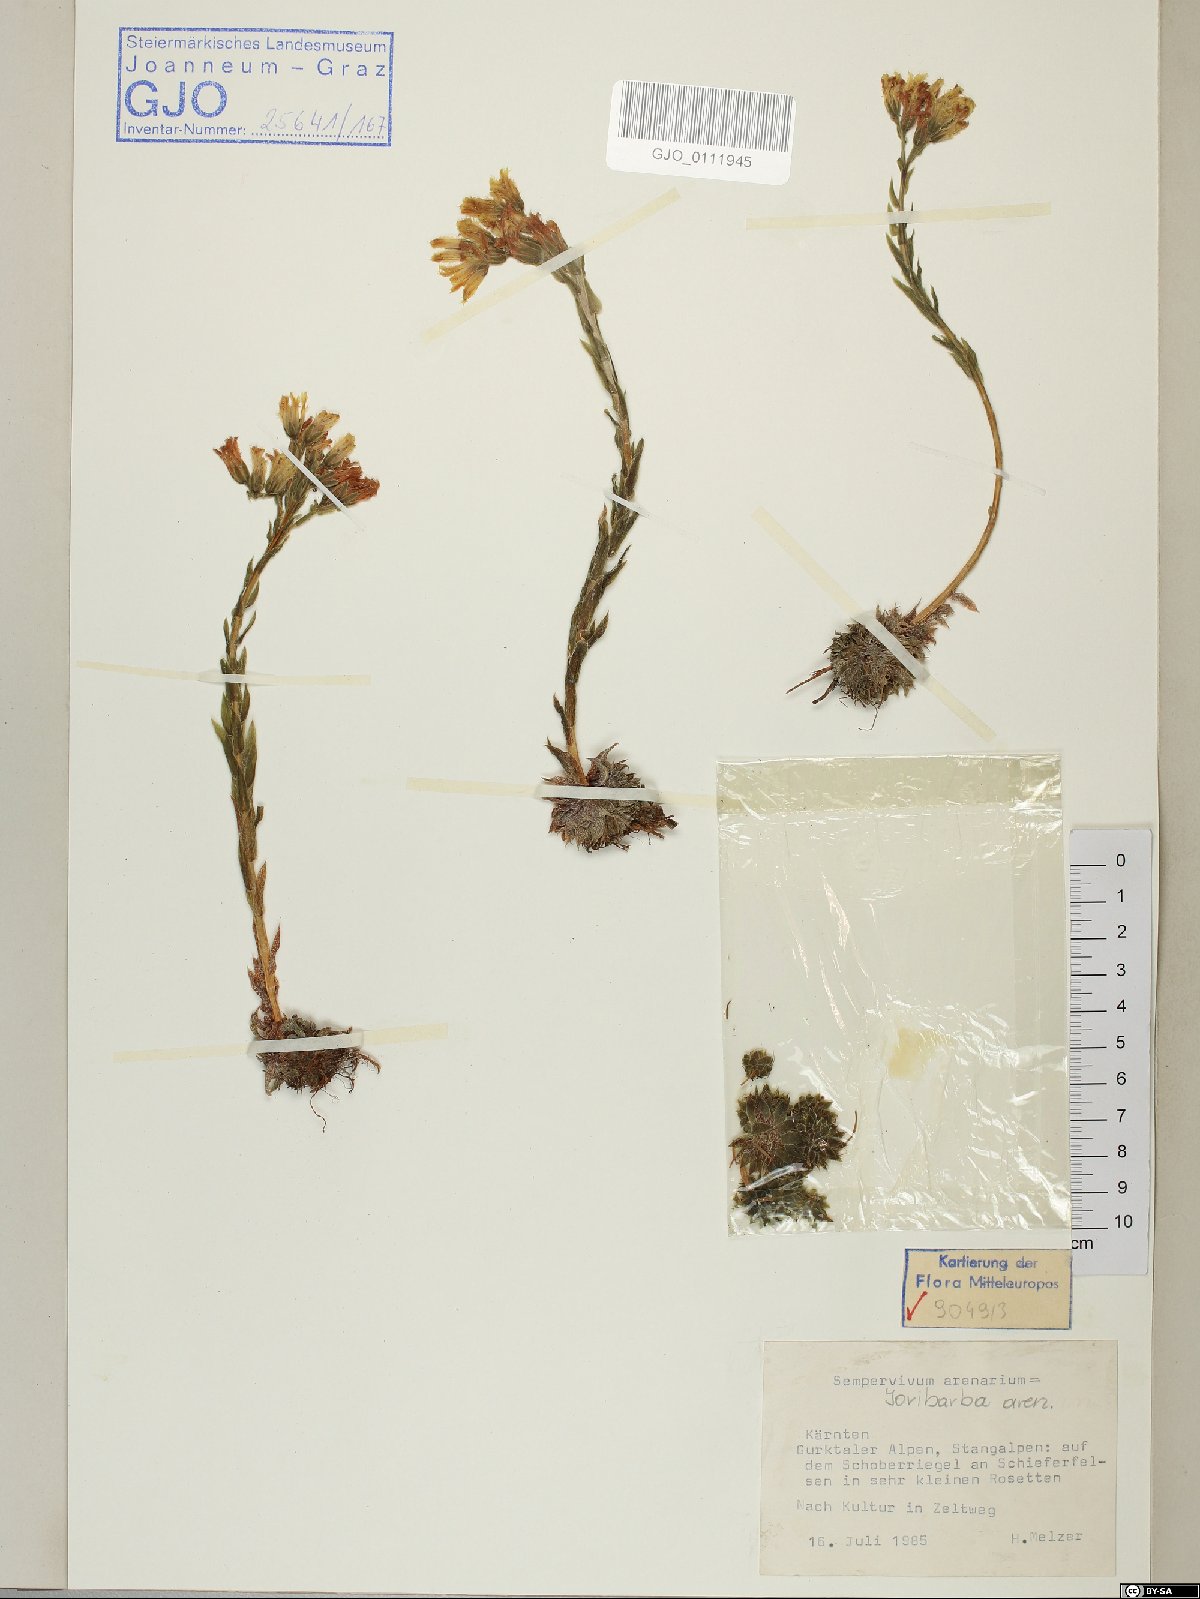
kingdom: Plantae
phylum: Tracheophyta
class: Magnoliopsida
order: Saxifragales
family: Crassulaceae
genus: Sempervivum
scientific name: Sempervivum globiferum
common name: Rolling hen-and-chicks
